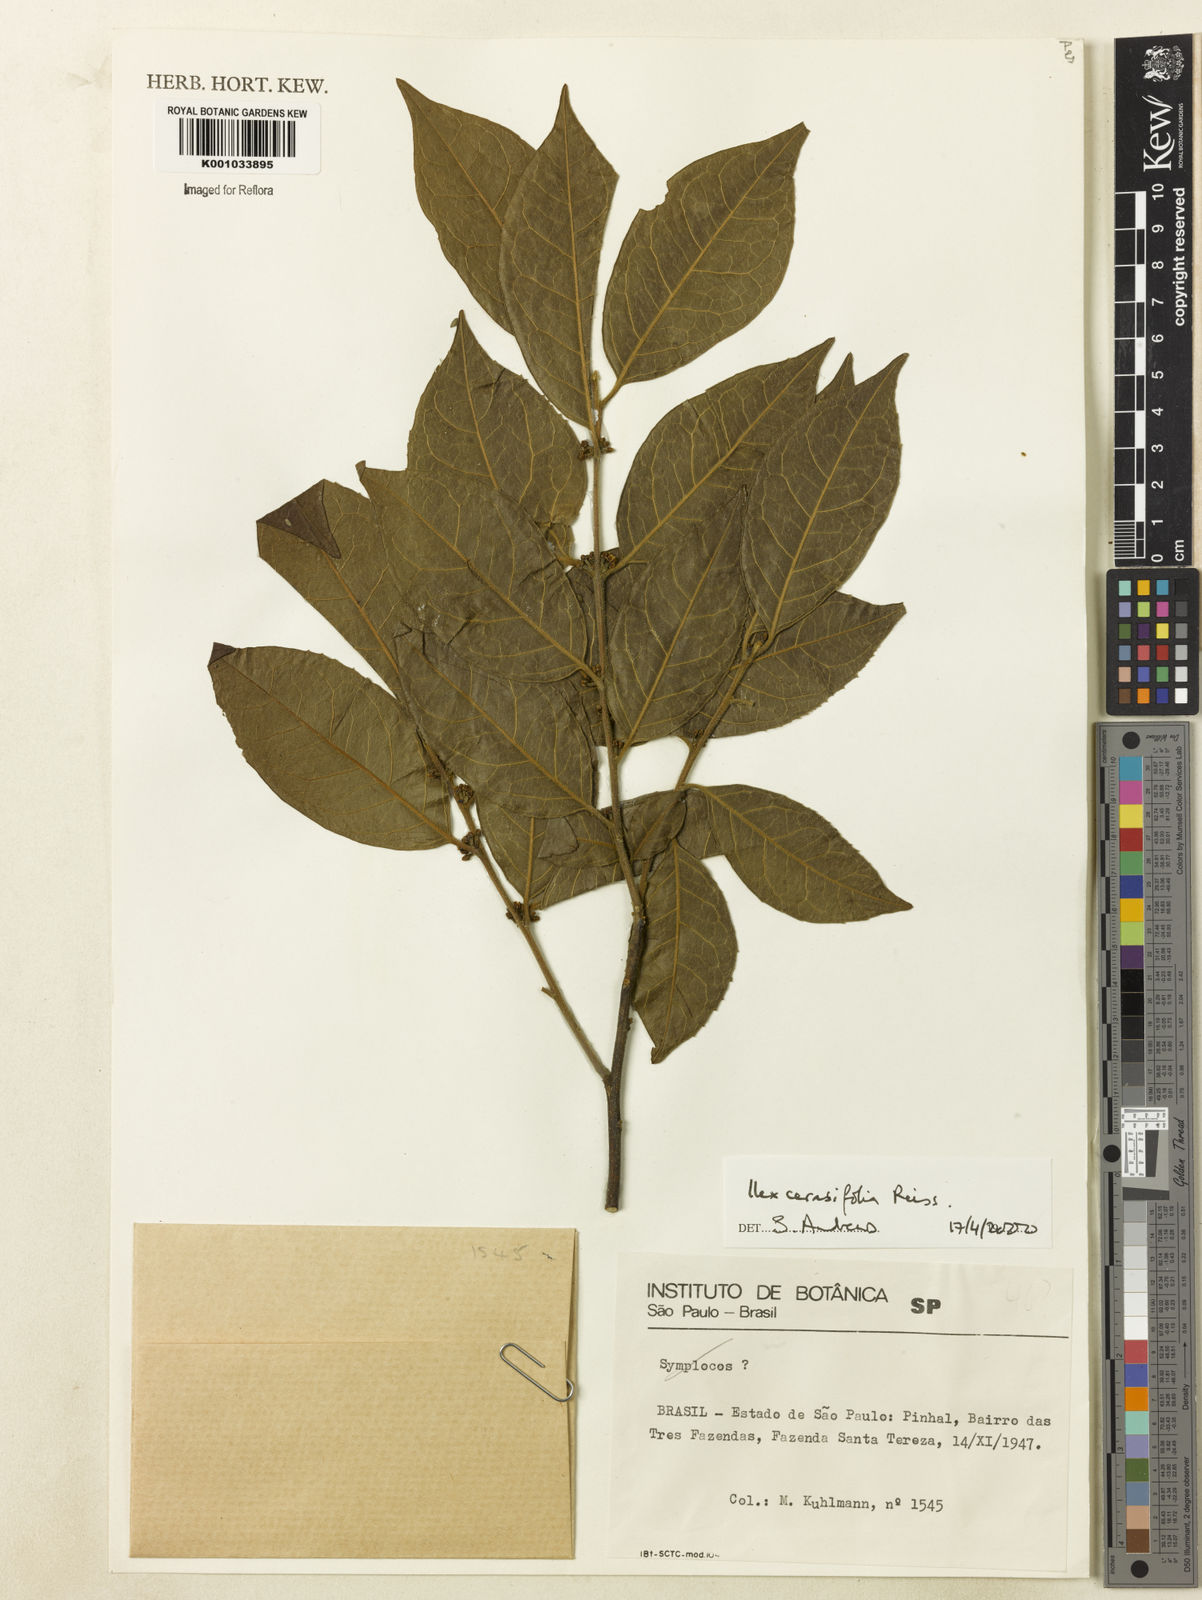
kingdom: Plantae
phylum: Tracheophyta
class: Magnoliopsida
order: Aquifoliales
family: Aquifoliaceae
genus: Ilex
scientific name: Ilex cerasifolia
